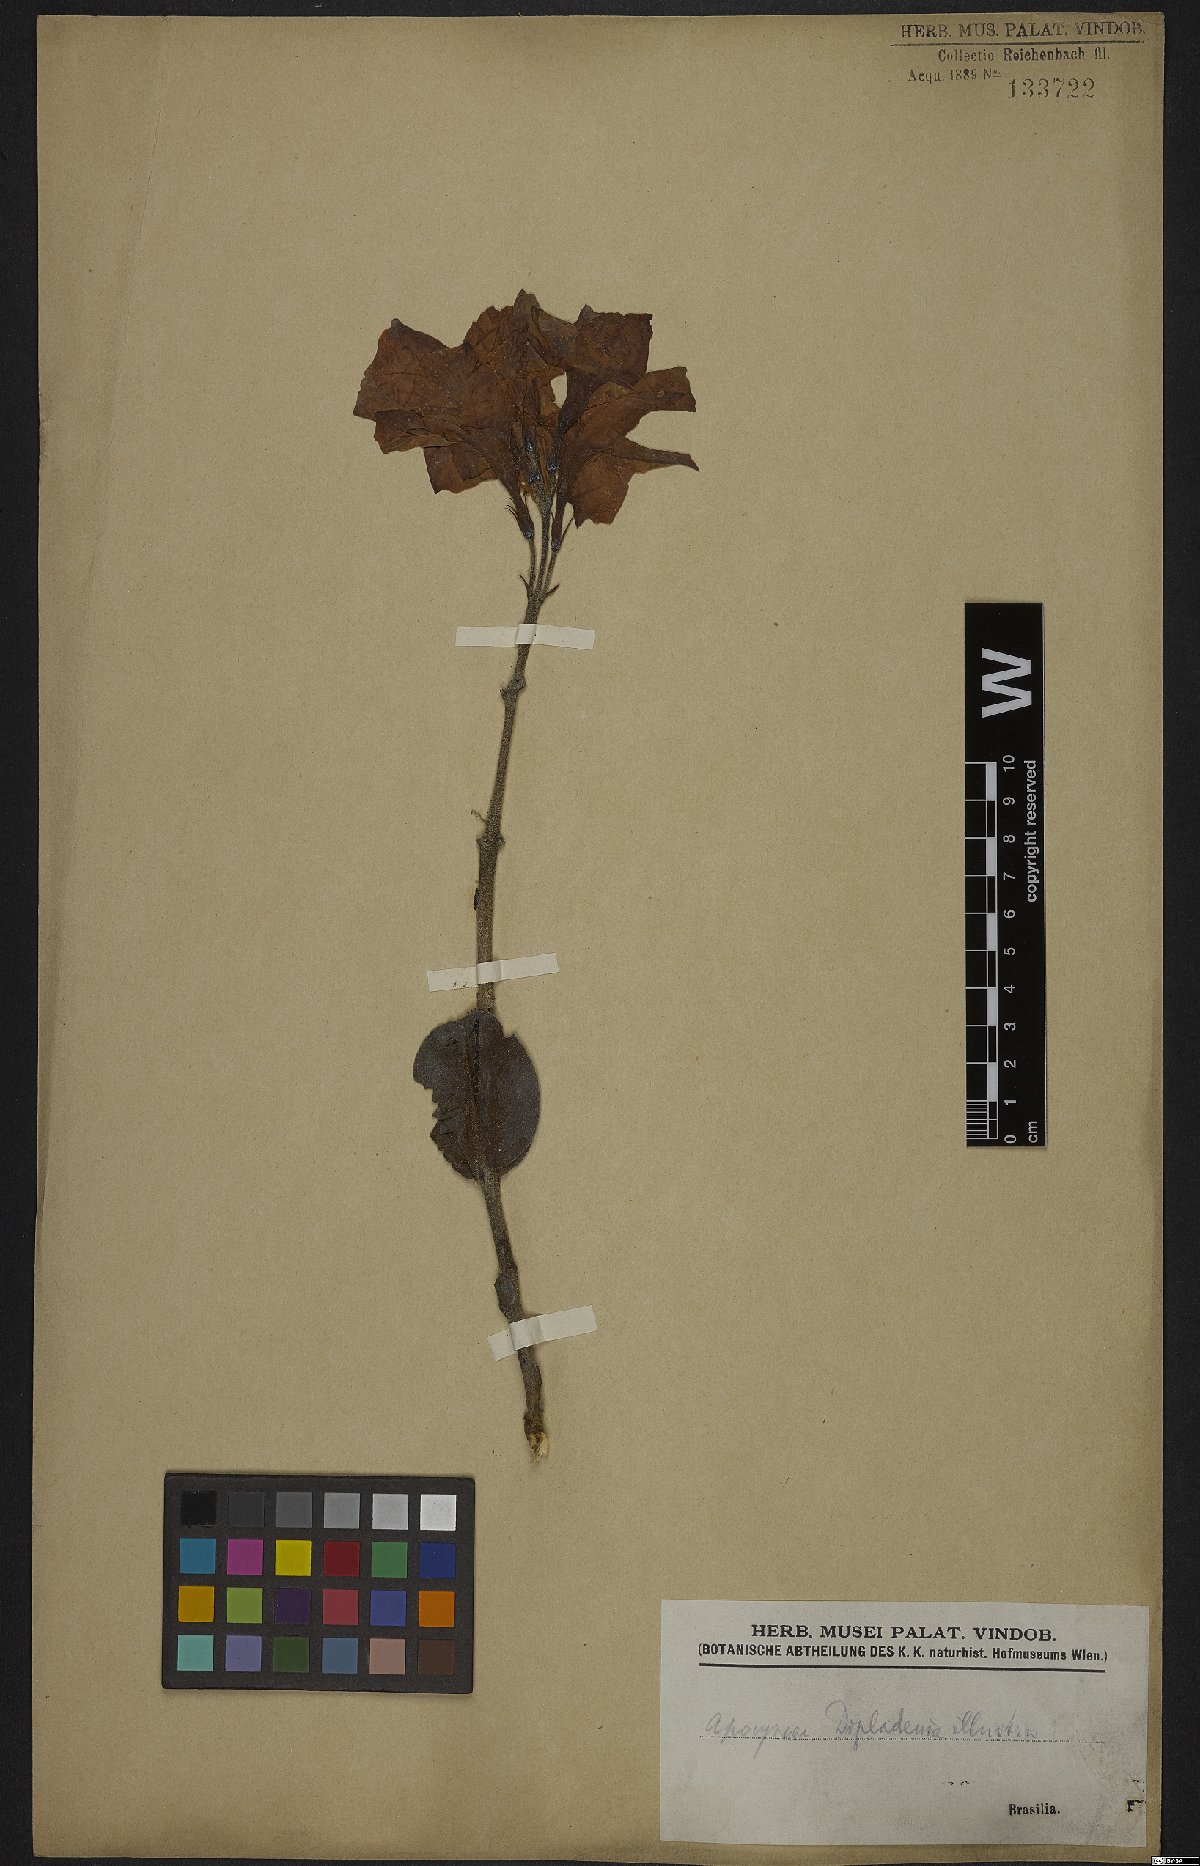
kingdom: Plantae
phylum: Tracheophyta
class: Magnoliopsida
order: Gentianales
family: Apocynaceae
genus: Mandevilla
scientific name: Mandevilla illustris
